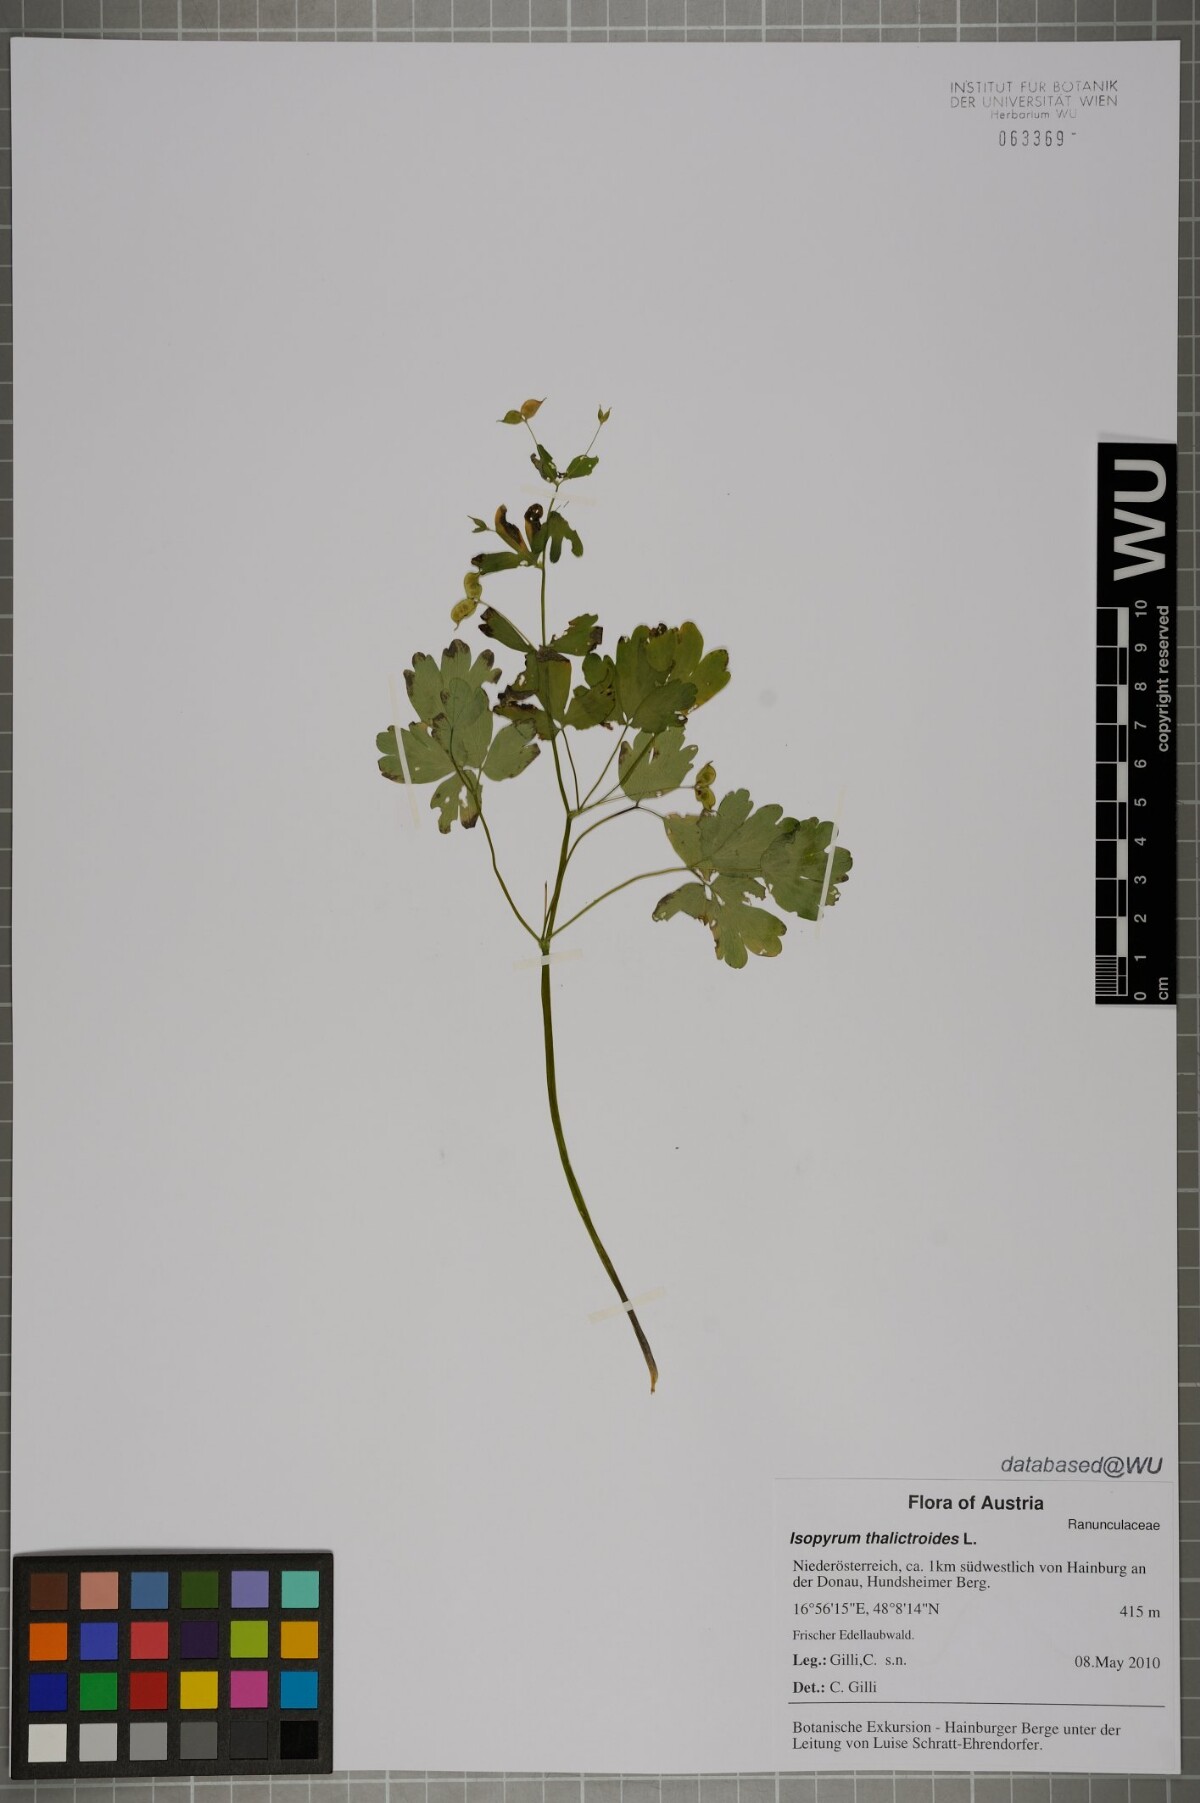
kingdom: Plantae
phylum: Tracheophyta
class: Magnoliopsida
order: Ranunculales
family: Ranunculaceae
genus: Isopyrum
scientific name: Isopyrum thalictroides
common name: Isopyrum
